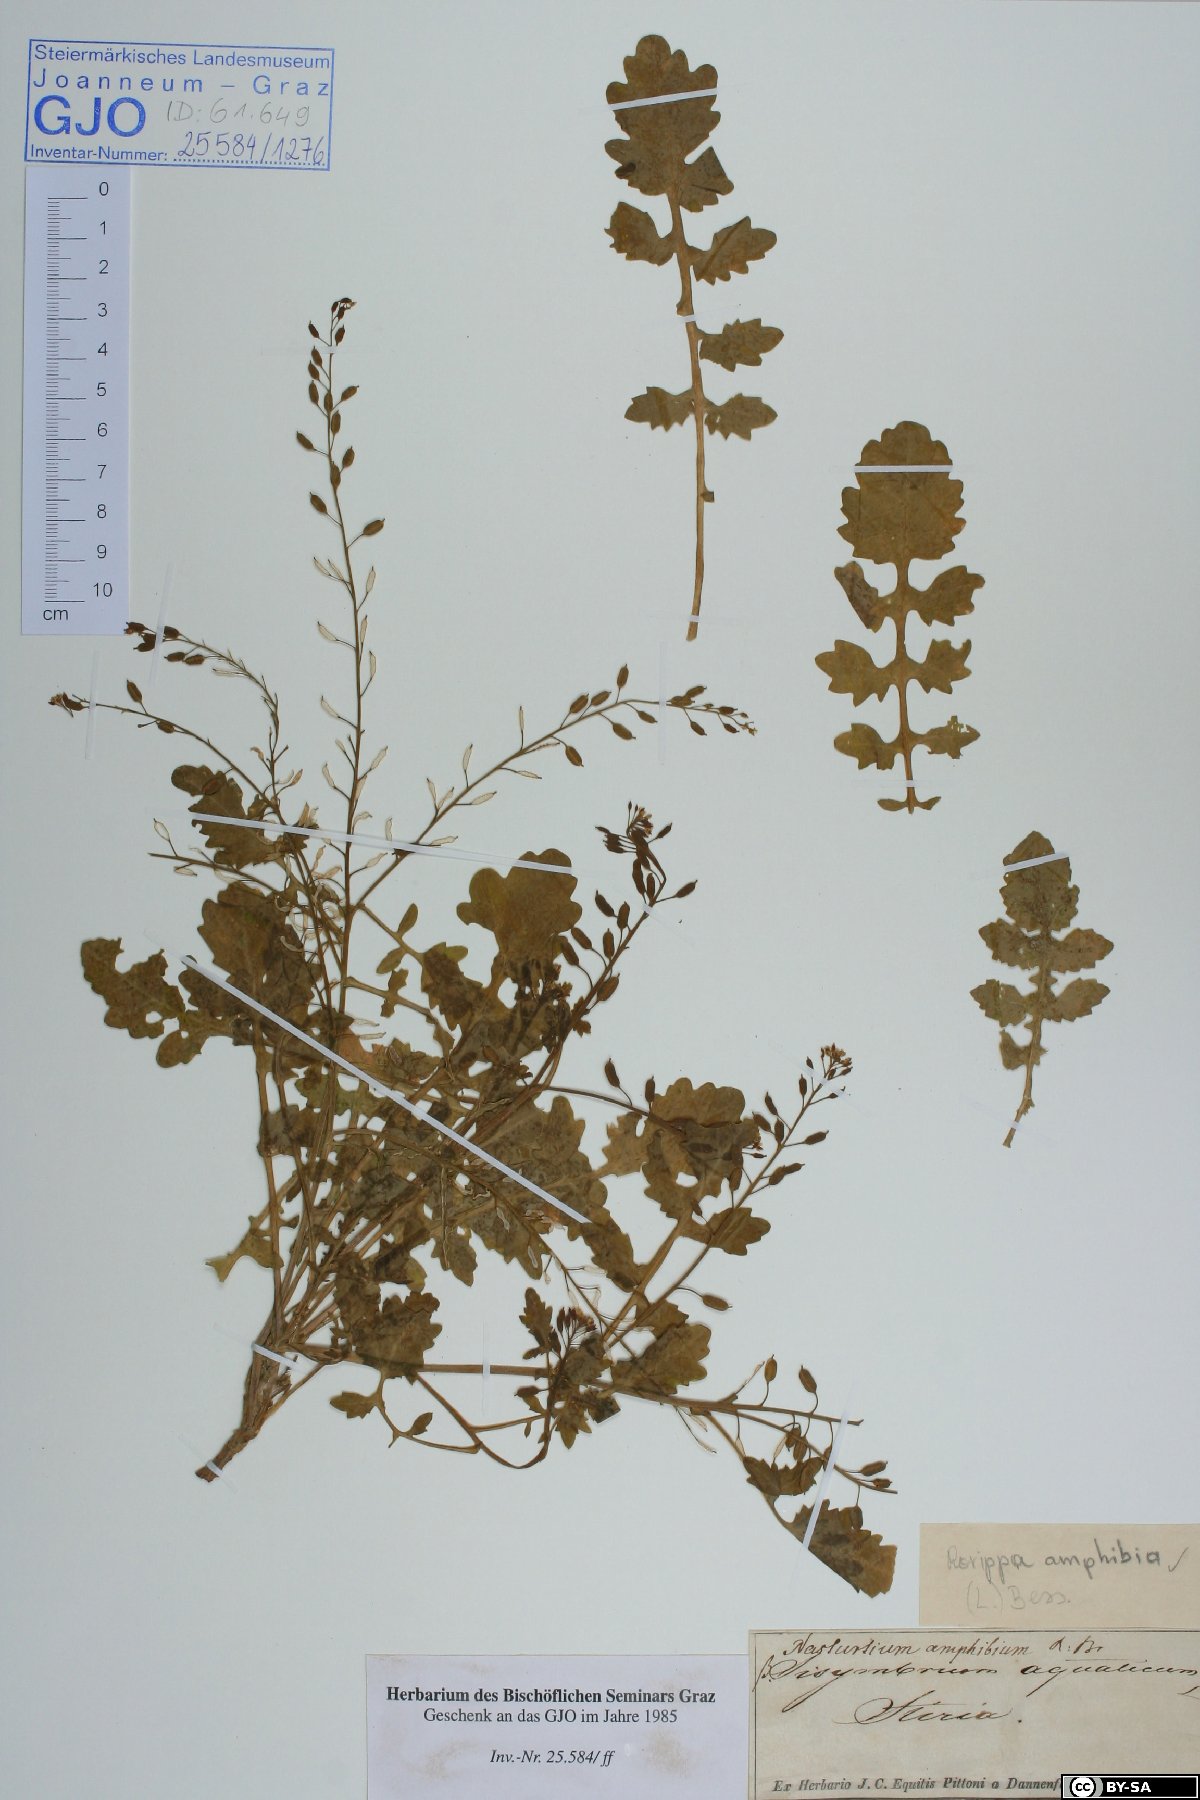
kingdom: Plantae
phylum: Tracheophyta
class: Magnoliopsida
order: Brassicales
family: Brassicaceae
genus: Rorippa
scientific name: Rorippa amphibia
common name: Great yellow-cress
